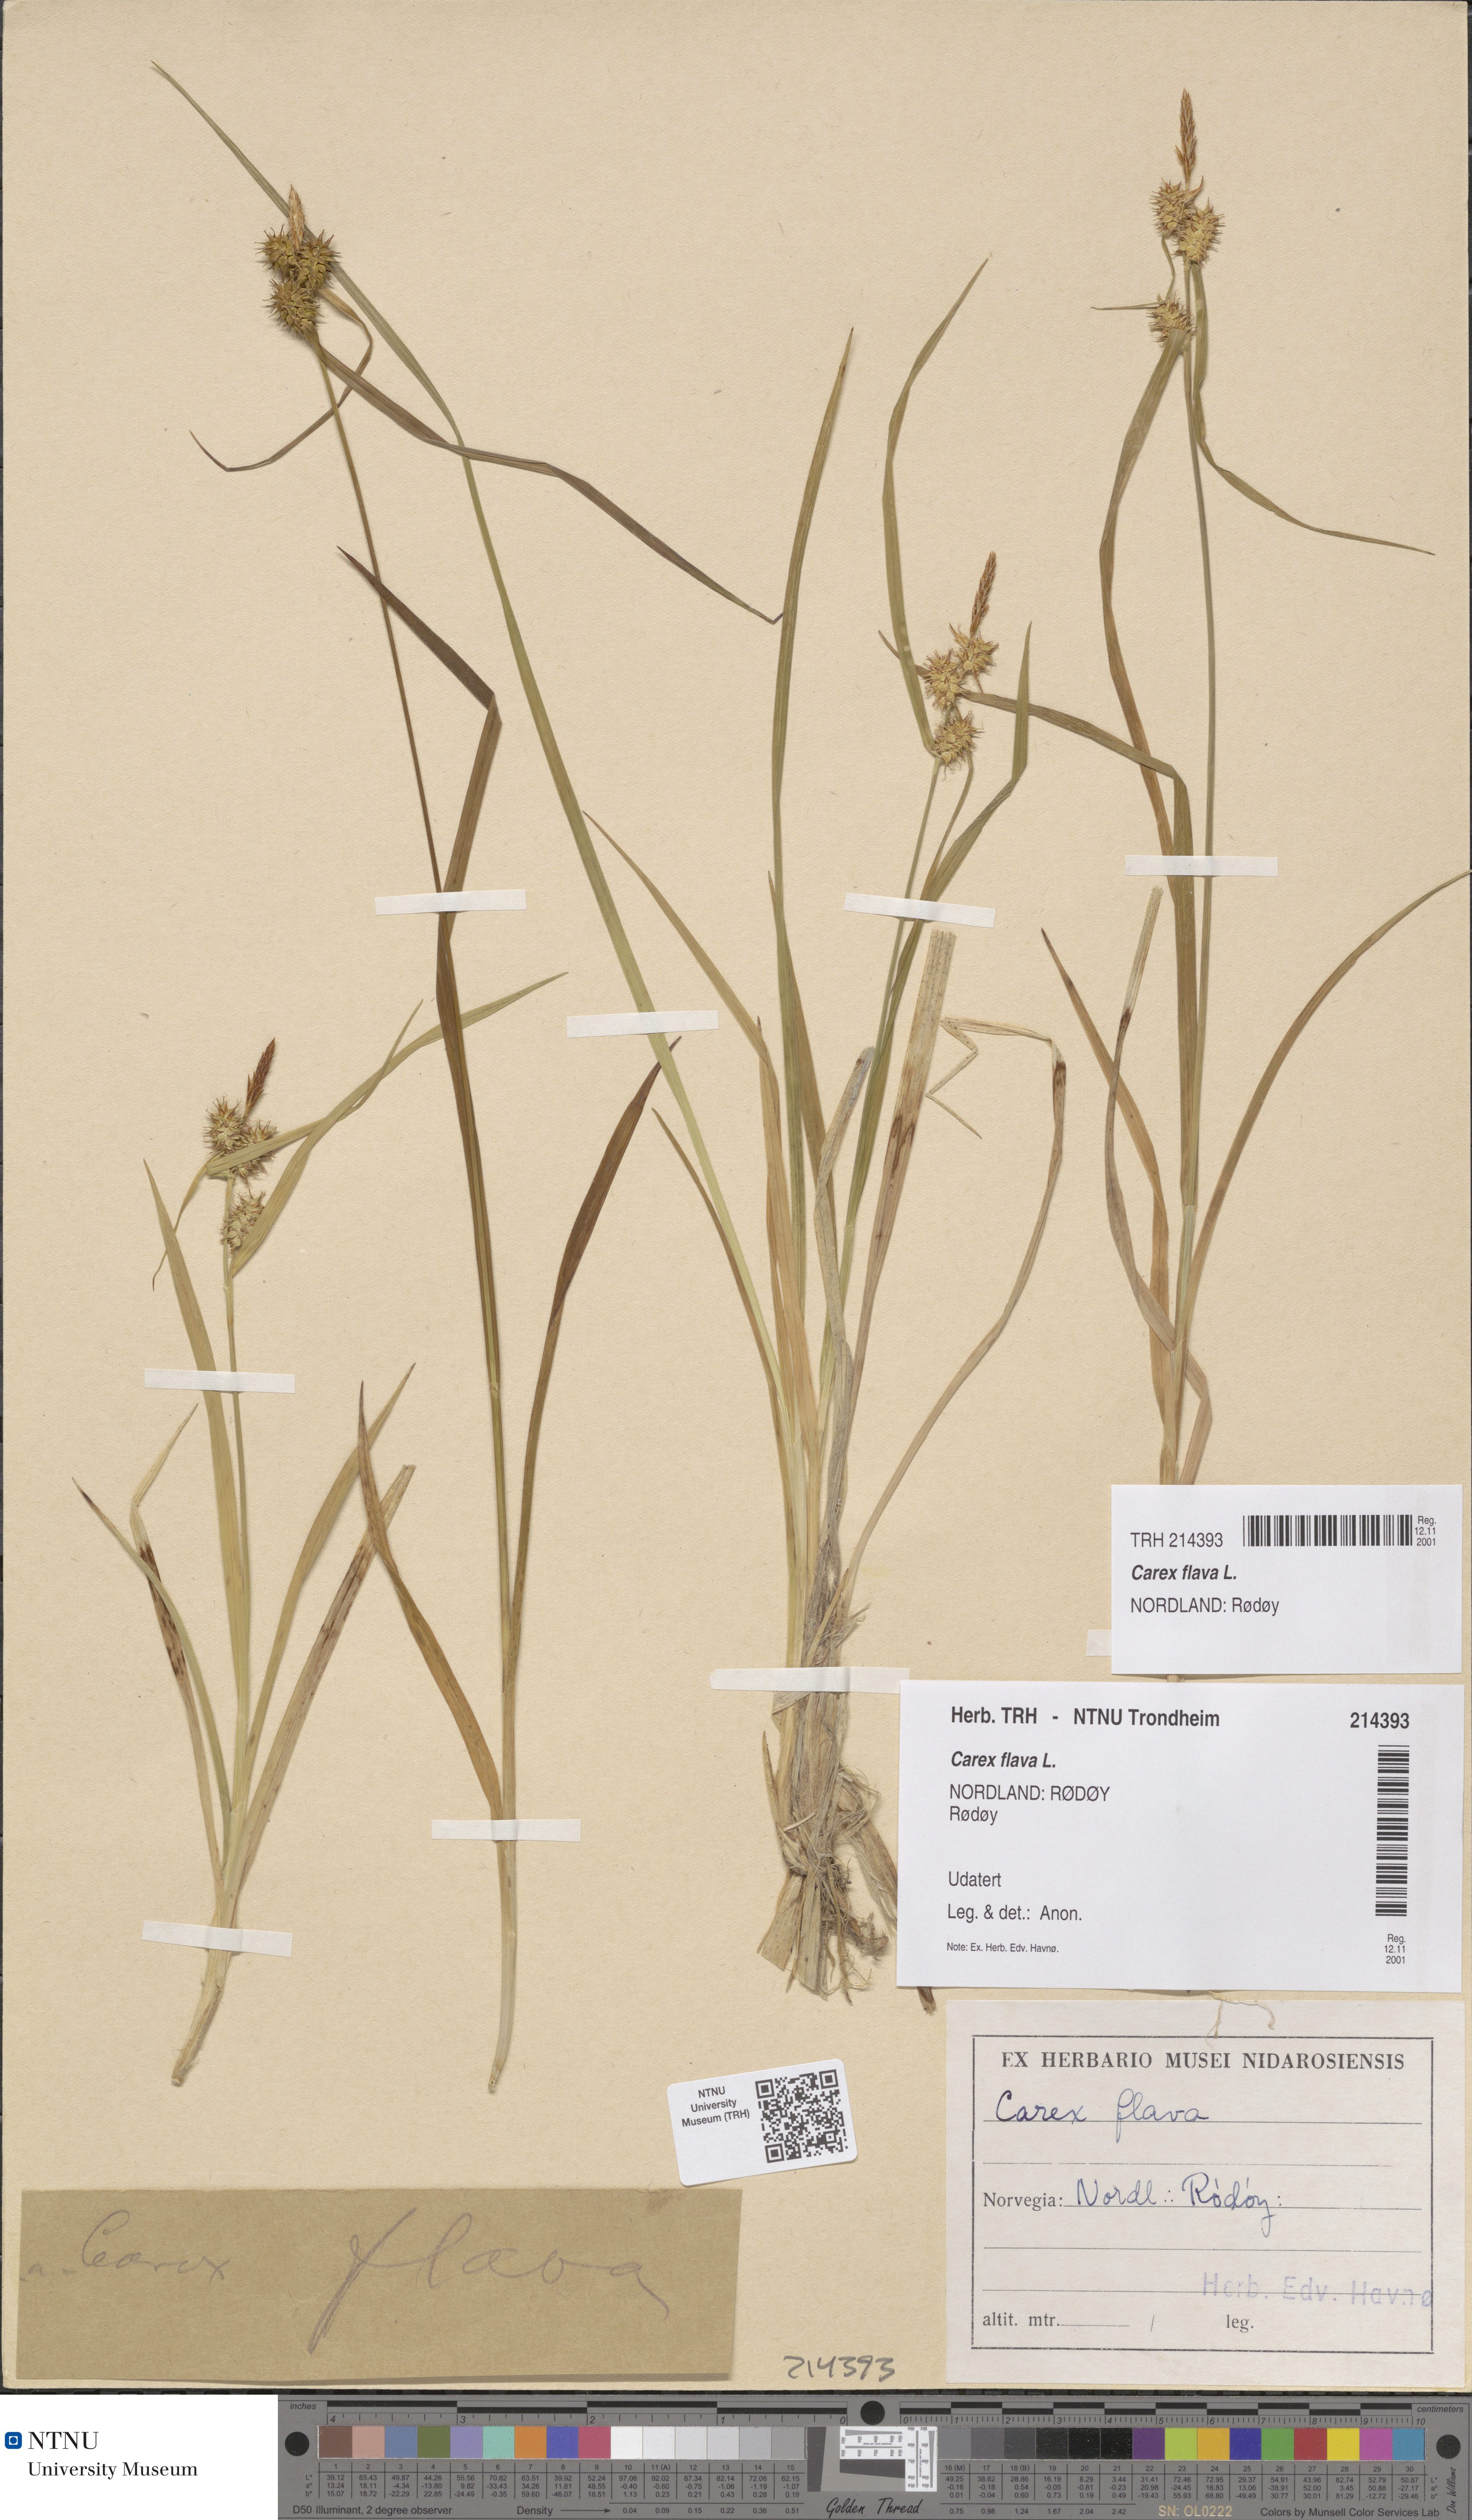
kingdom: Plantae
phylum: Tracheophyta
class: Liliopsida
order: Poales
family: Cyperaceae
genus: Carex
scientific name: Carex flava
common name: Large yellow-sedge
